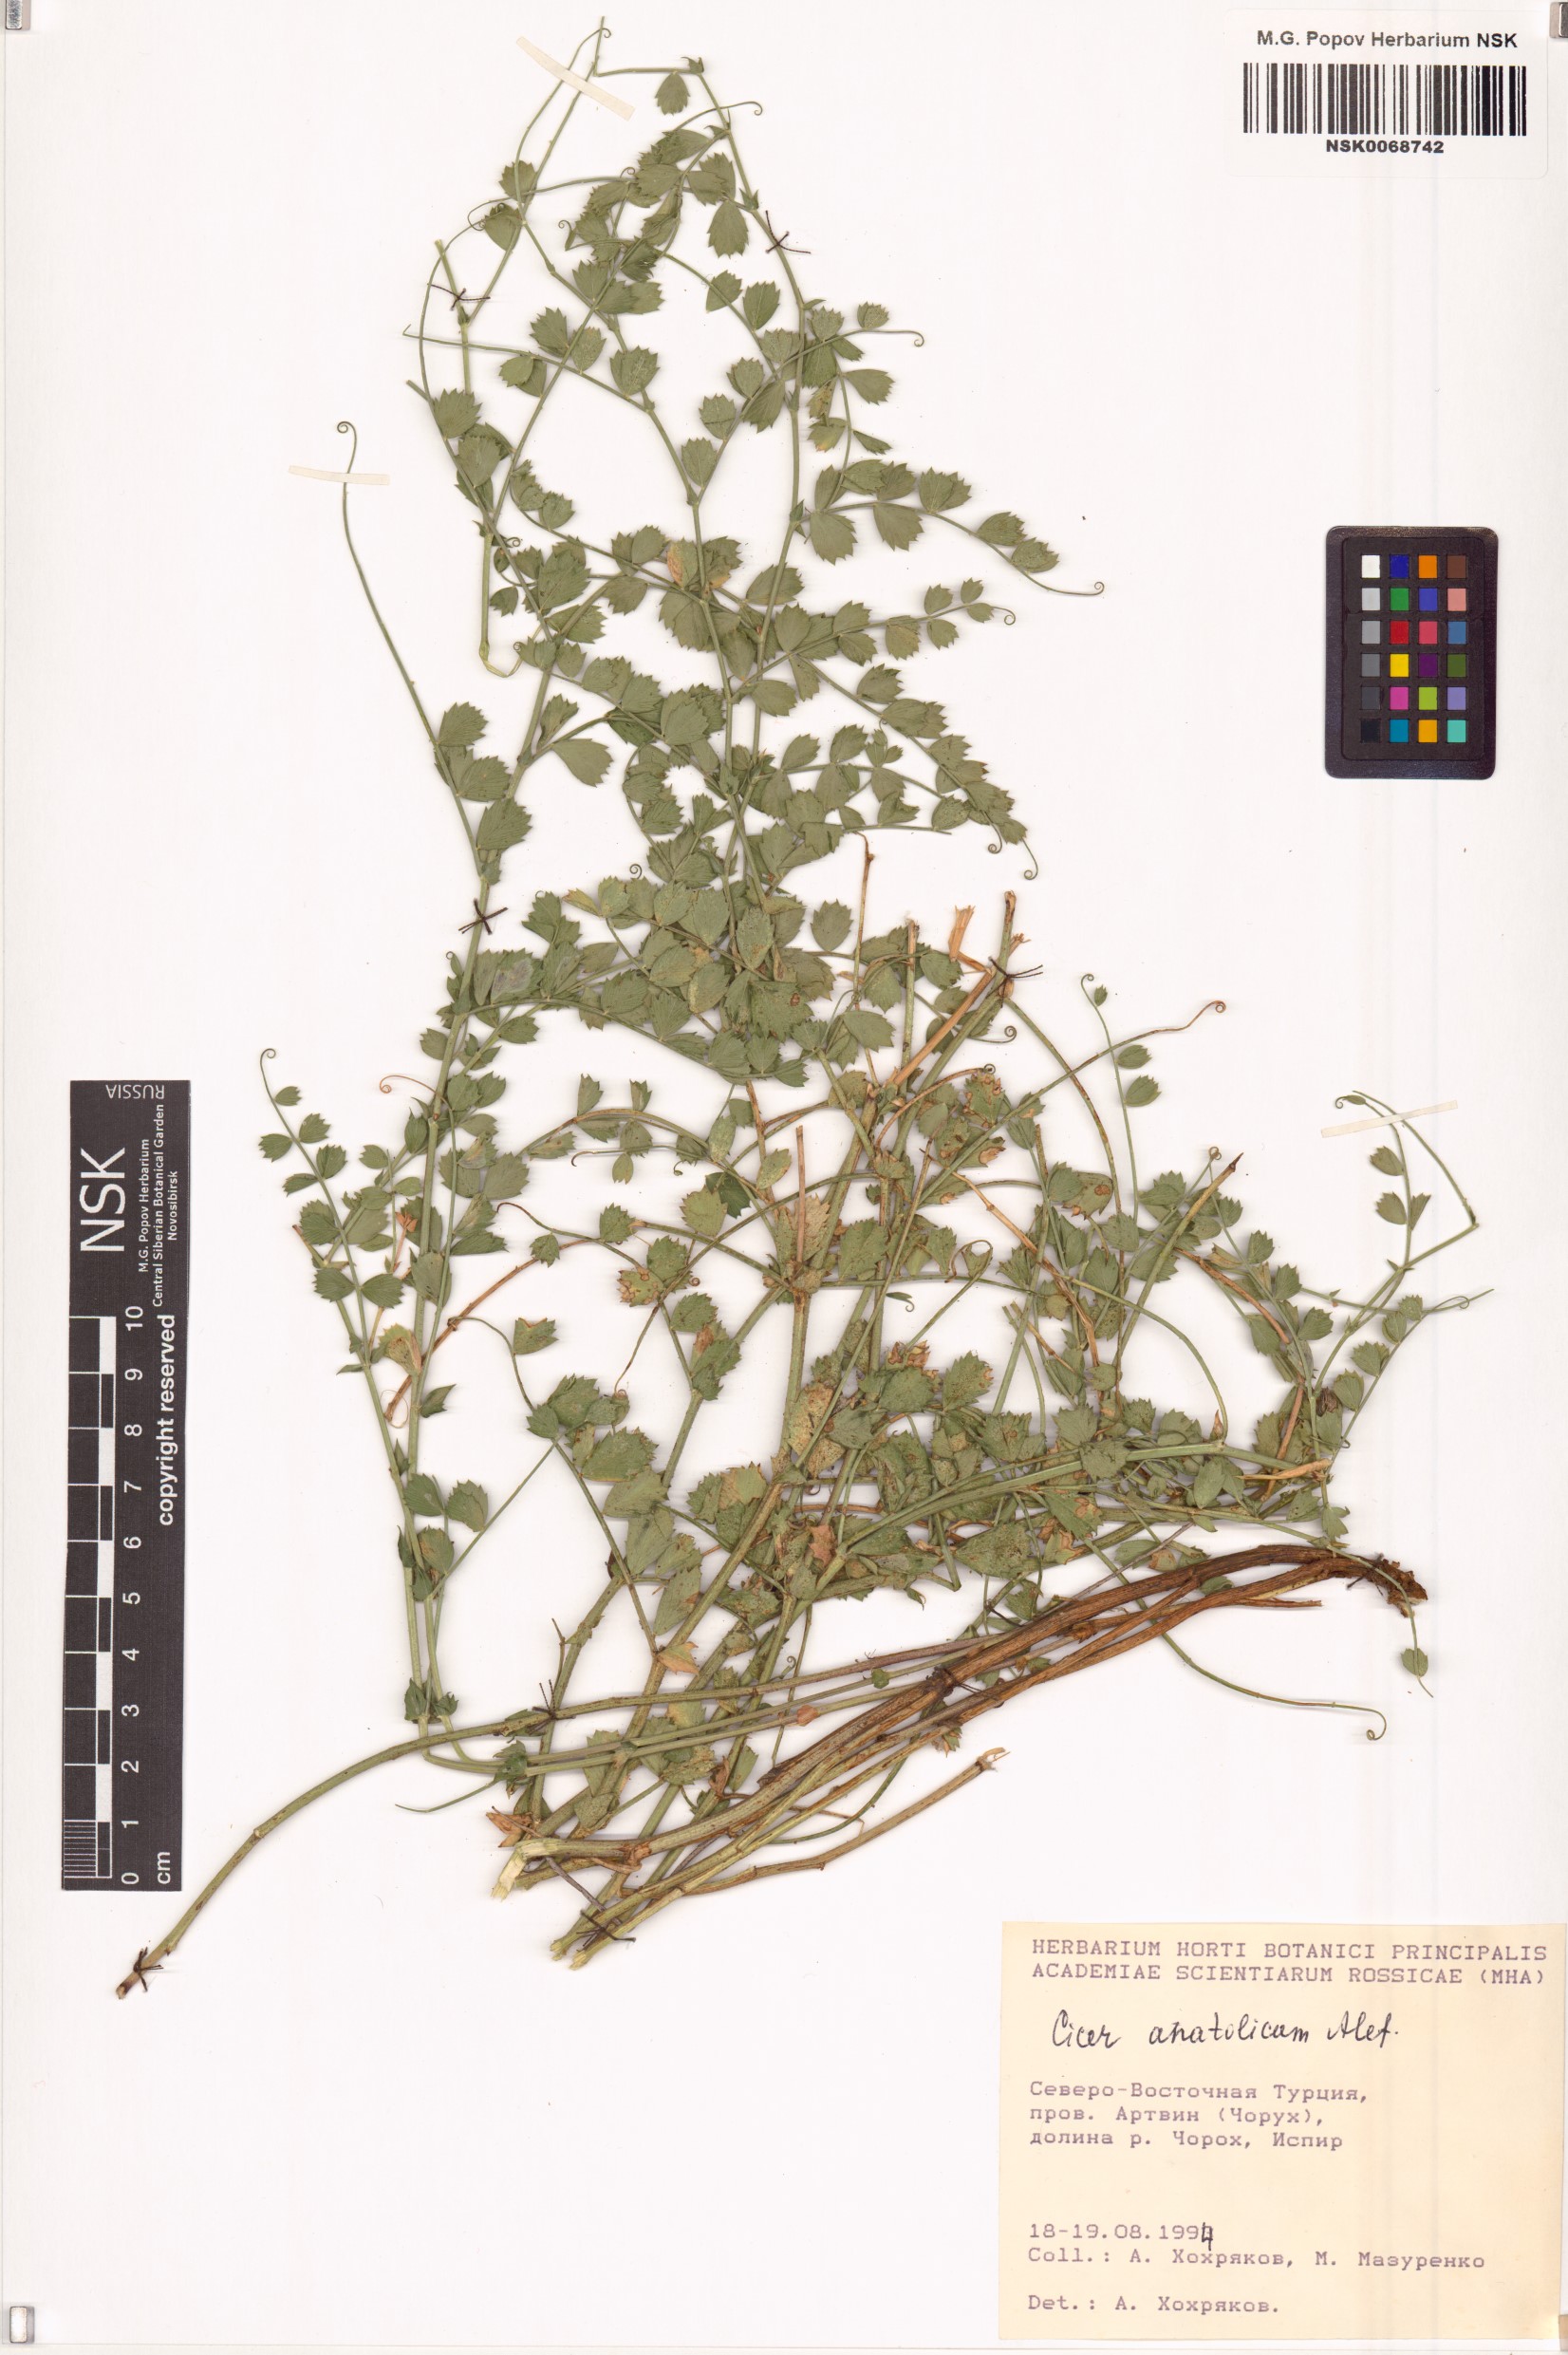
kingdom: Plantae
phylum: Tracheophyta
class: Magnoliopsida
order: Fabales
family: Fabaceae
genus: Cicer
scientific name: Cicer anatolicum
